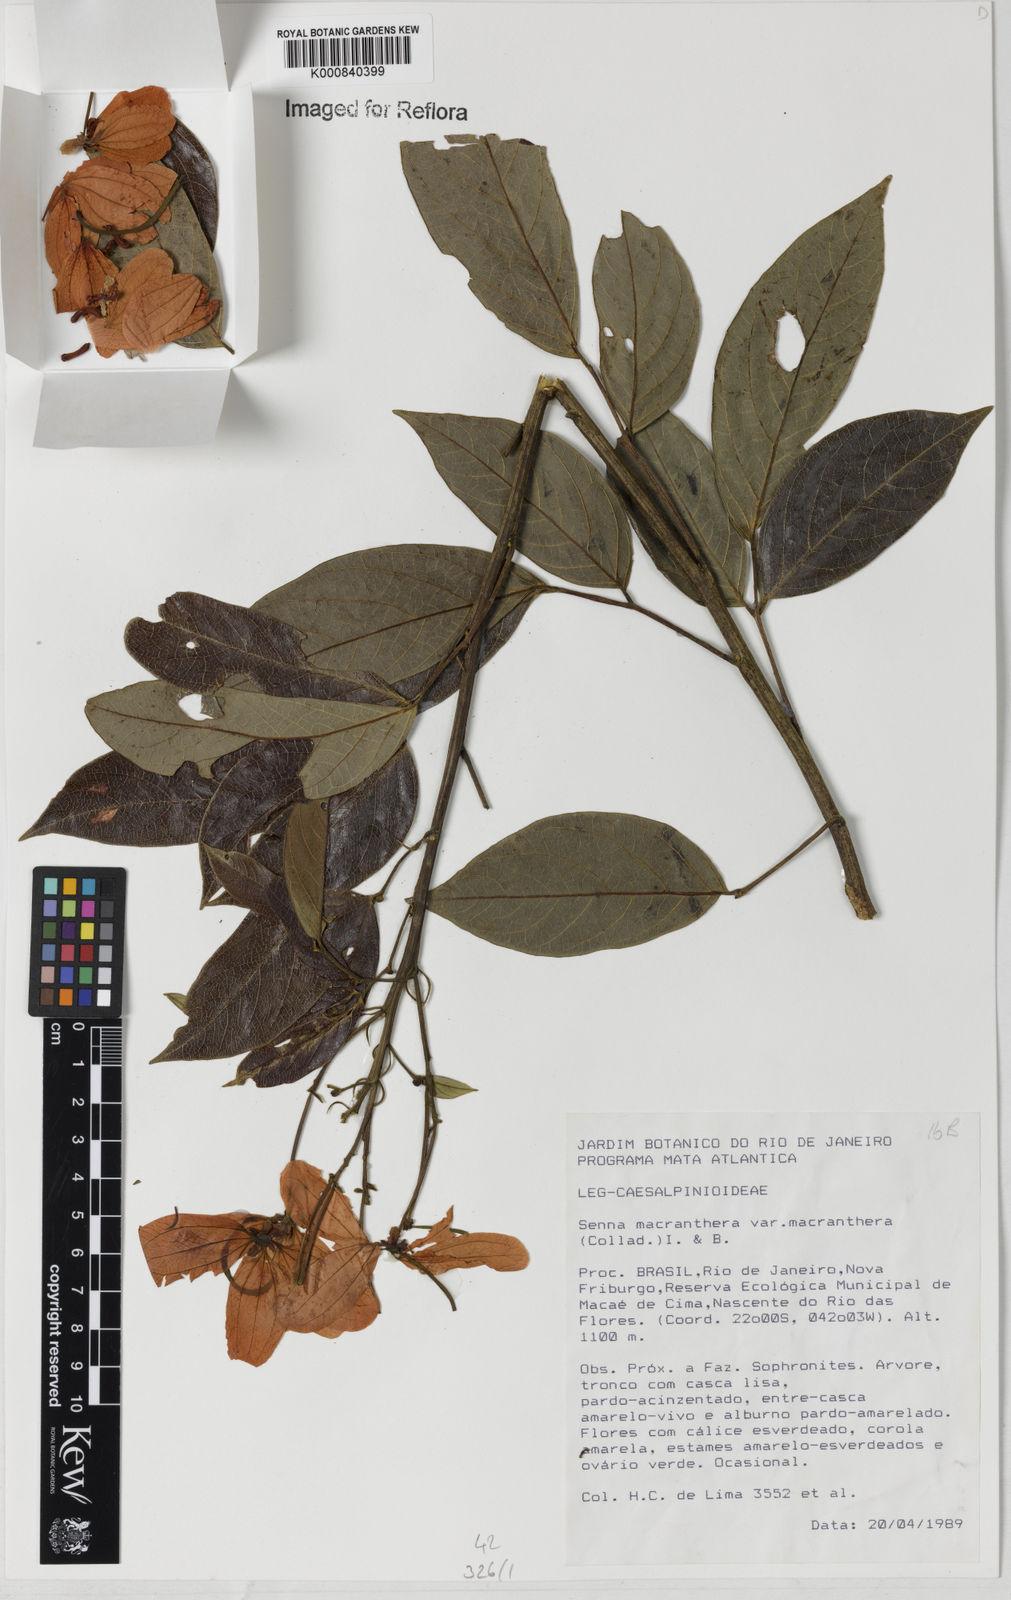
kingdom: Plantae
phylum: Tracheophyta
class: Magnoliopsida
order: Fabales
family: Fabaceae
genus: Senna
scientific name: Senna macranthera
